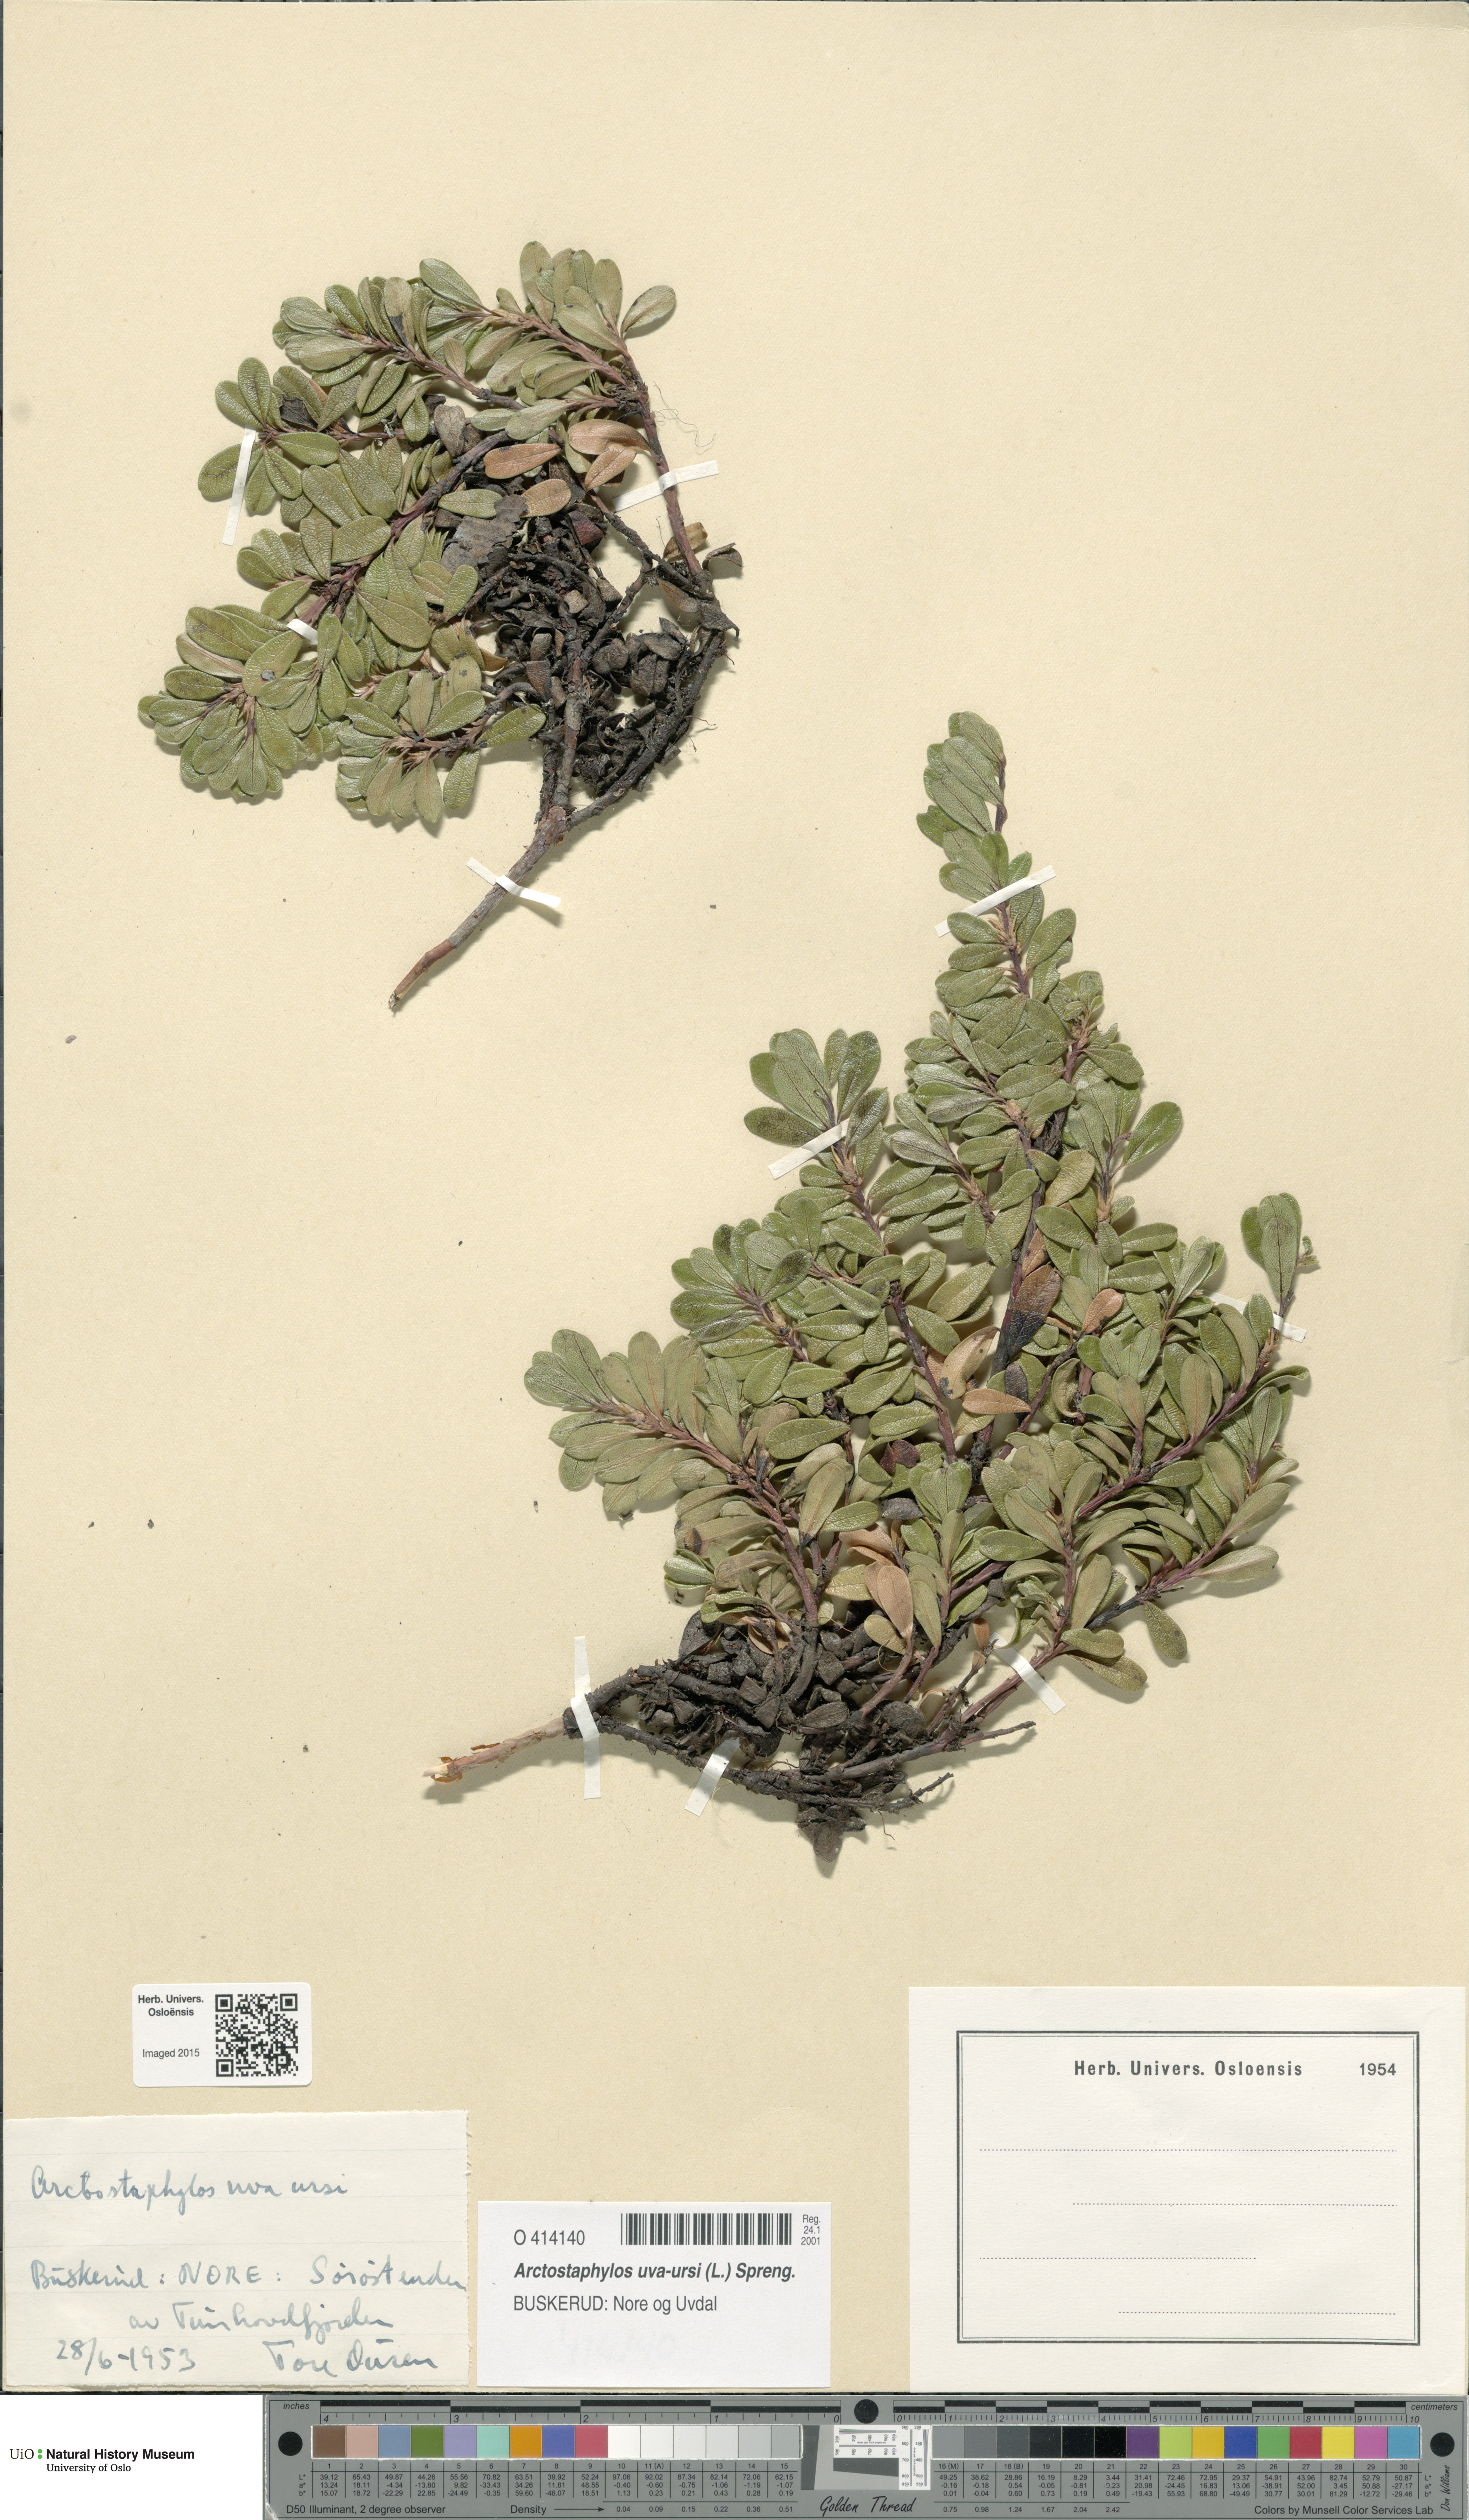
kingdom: Plantae
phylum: Tracheophyta
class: Magnoliopsida
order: Ericales
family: Ericaceae
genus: Arctostaphylos
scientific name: Arctostaphylos uva-ursi
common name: Bearberry
